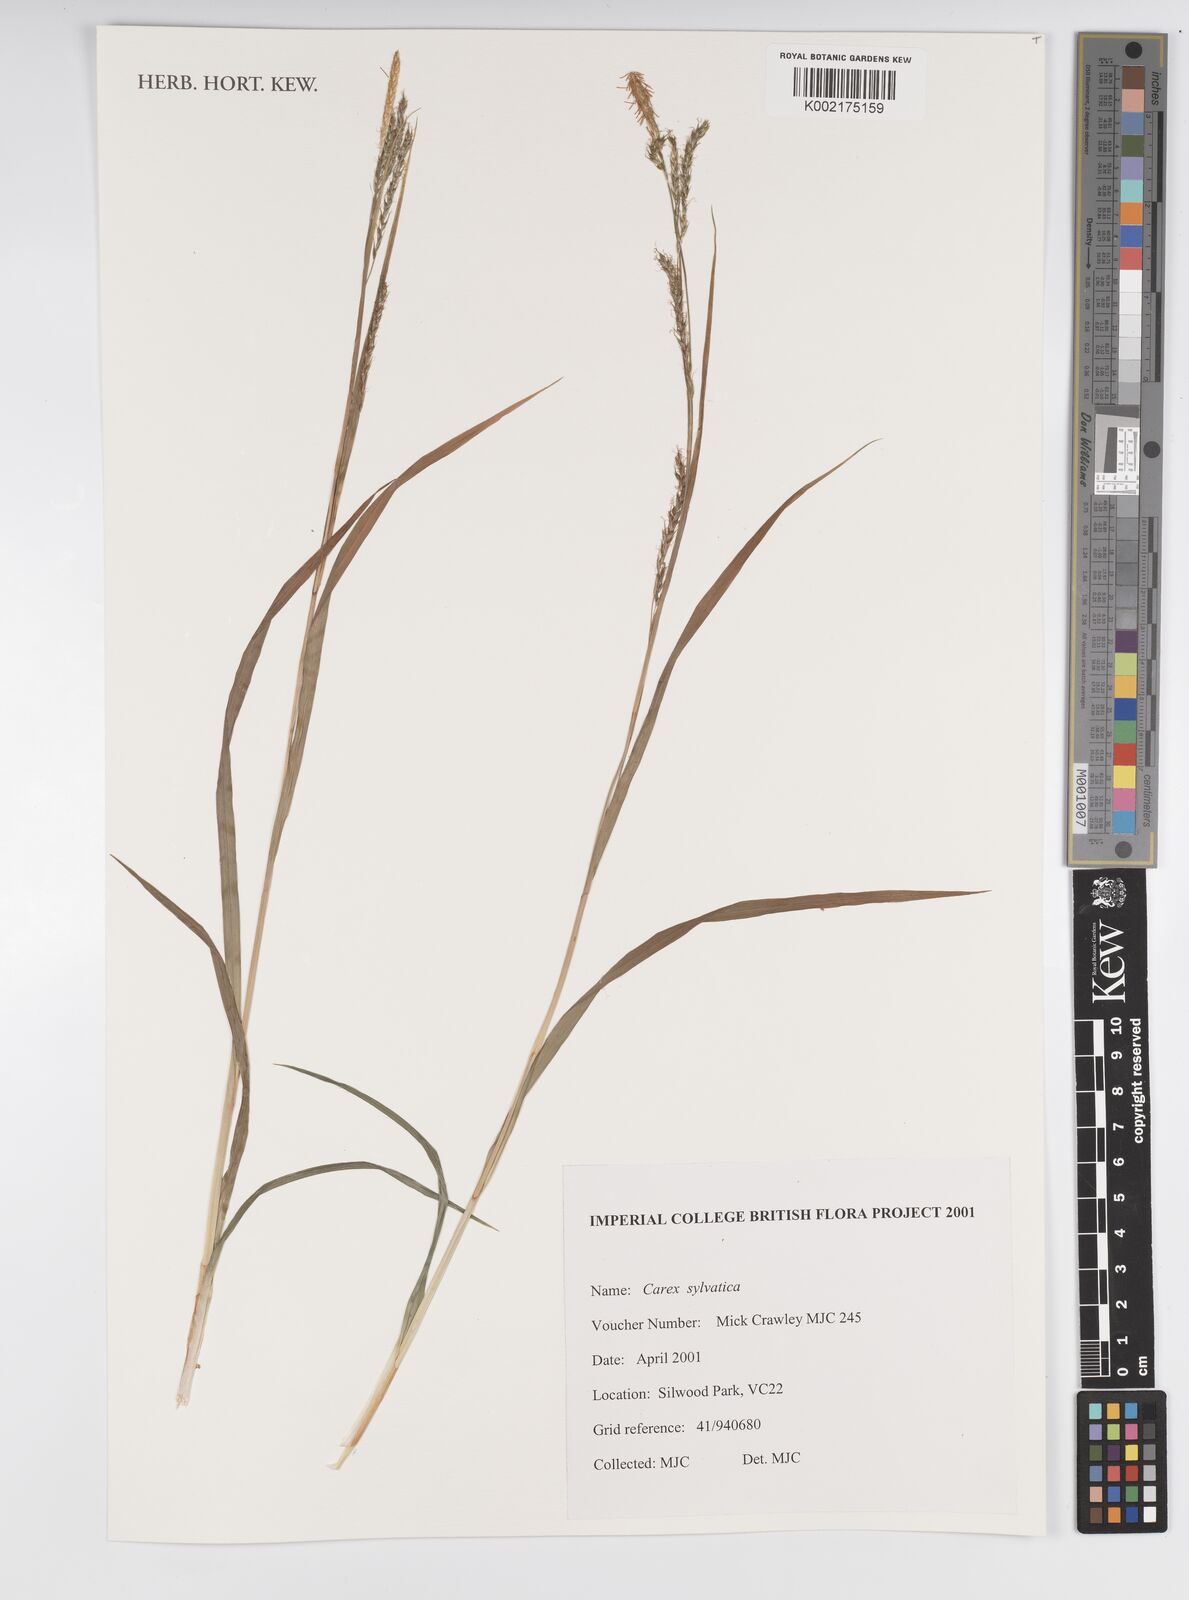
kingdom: Plantae
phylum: Tracheophyta
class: Liliopsida
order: Poales
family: Cyperaceae
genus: Carex
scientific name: Carex sylvatica
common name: Wood-sedge
